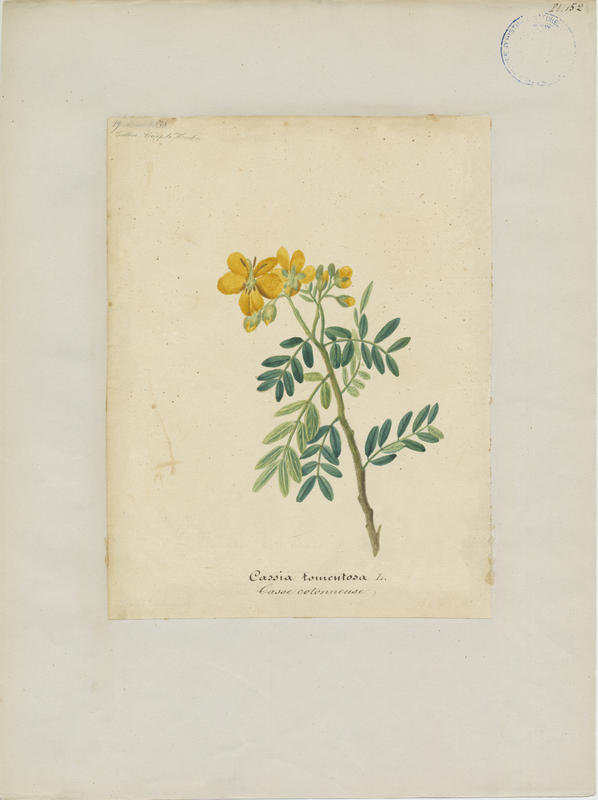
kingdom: Plantae
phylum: Tracheophyta
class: Magnoliopsida
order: Fabales
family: Fabaceae
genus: Senna
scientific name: Senna multiglandulosa
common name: Glandular senna
